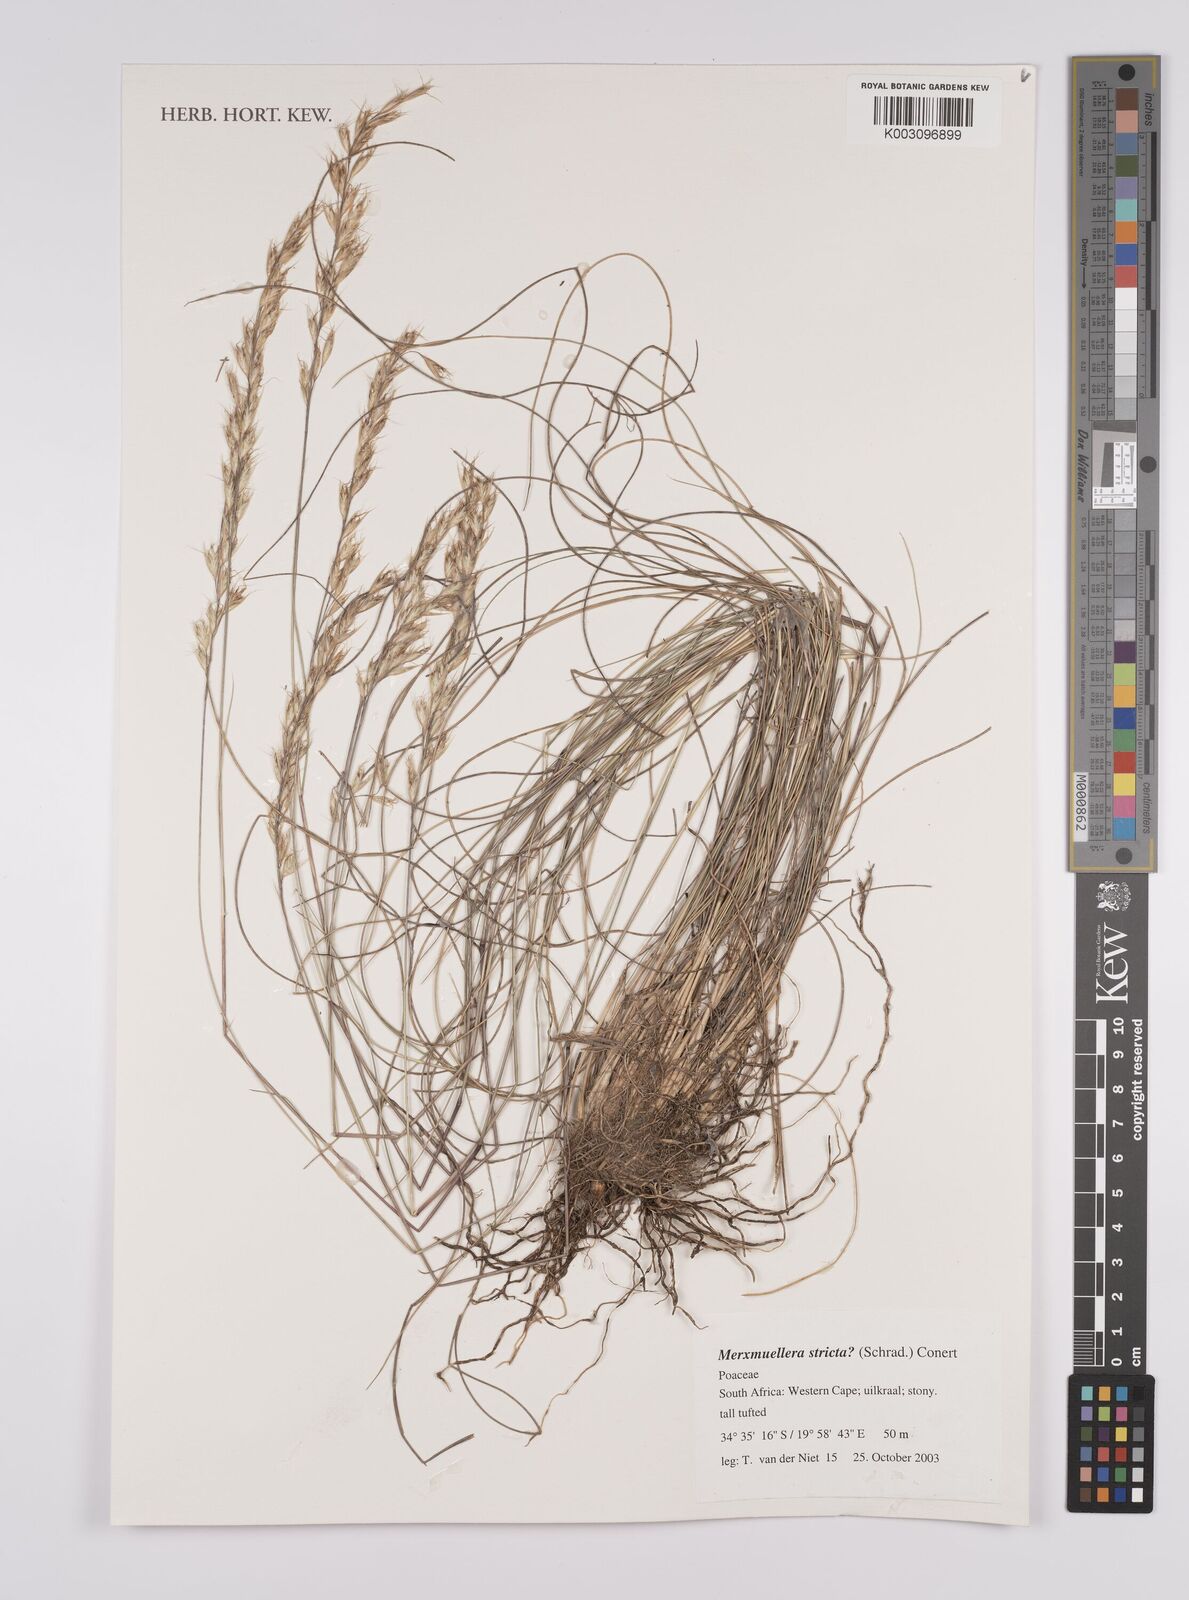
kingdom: Plantae
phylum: Tracheophyta
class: Liliopsida
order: Poales
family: Poaceae
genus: Rytidosperma
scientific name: Rytidosperma australe
